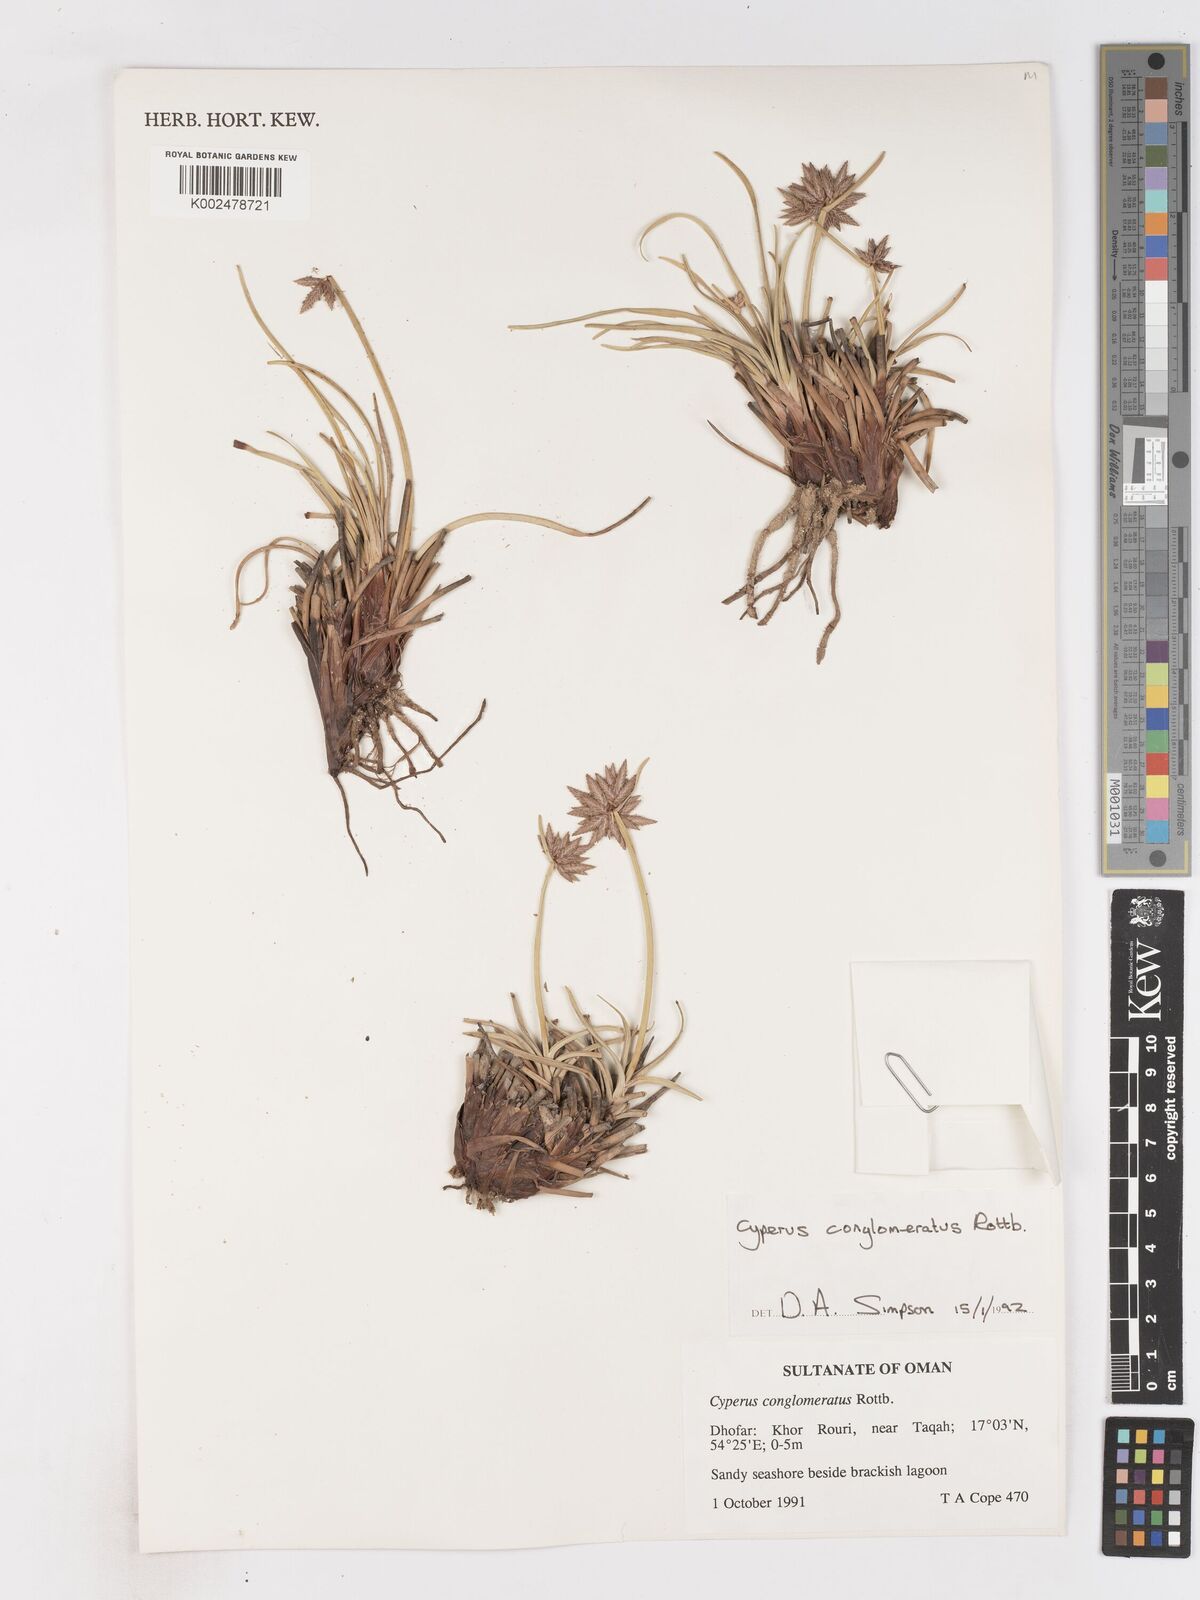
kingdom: Plantae
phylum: Tracheophyta
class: Liliopsida
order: Poales
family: Cyperaceae
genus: Cyperus
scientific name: Cyperus conglomeratus
